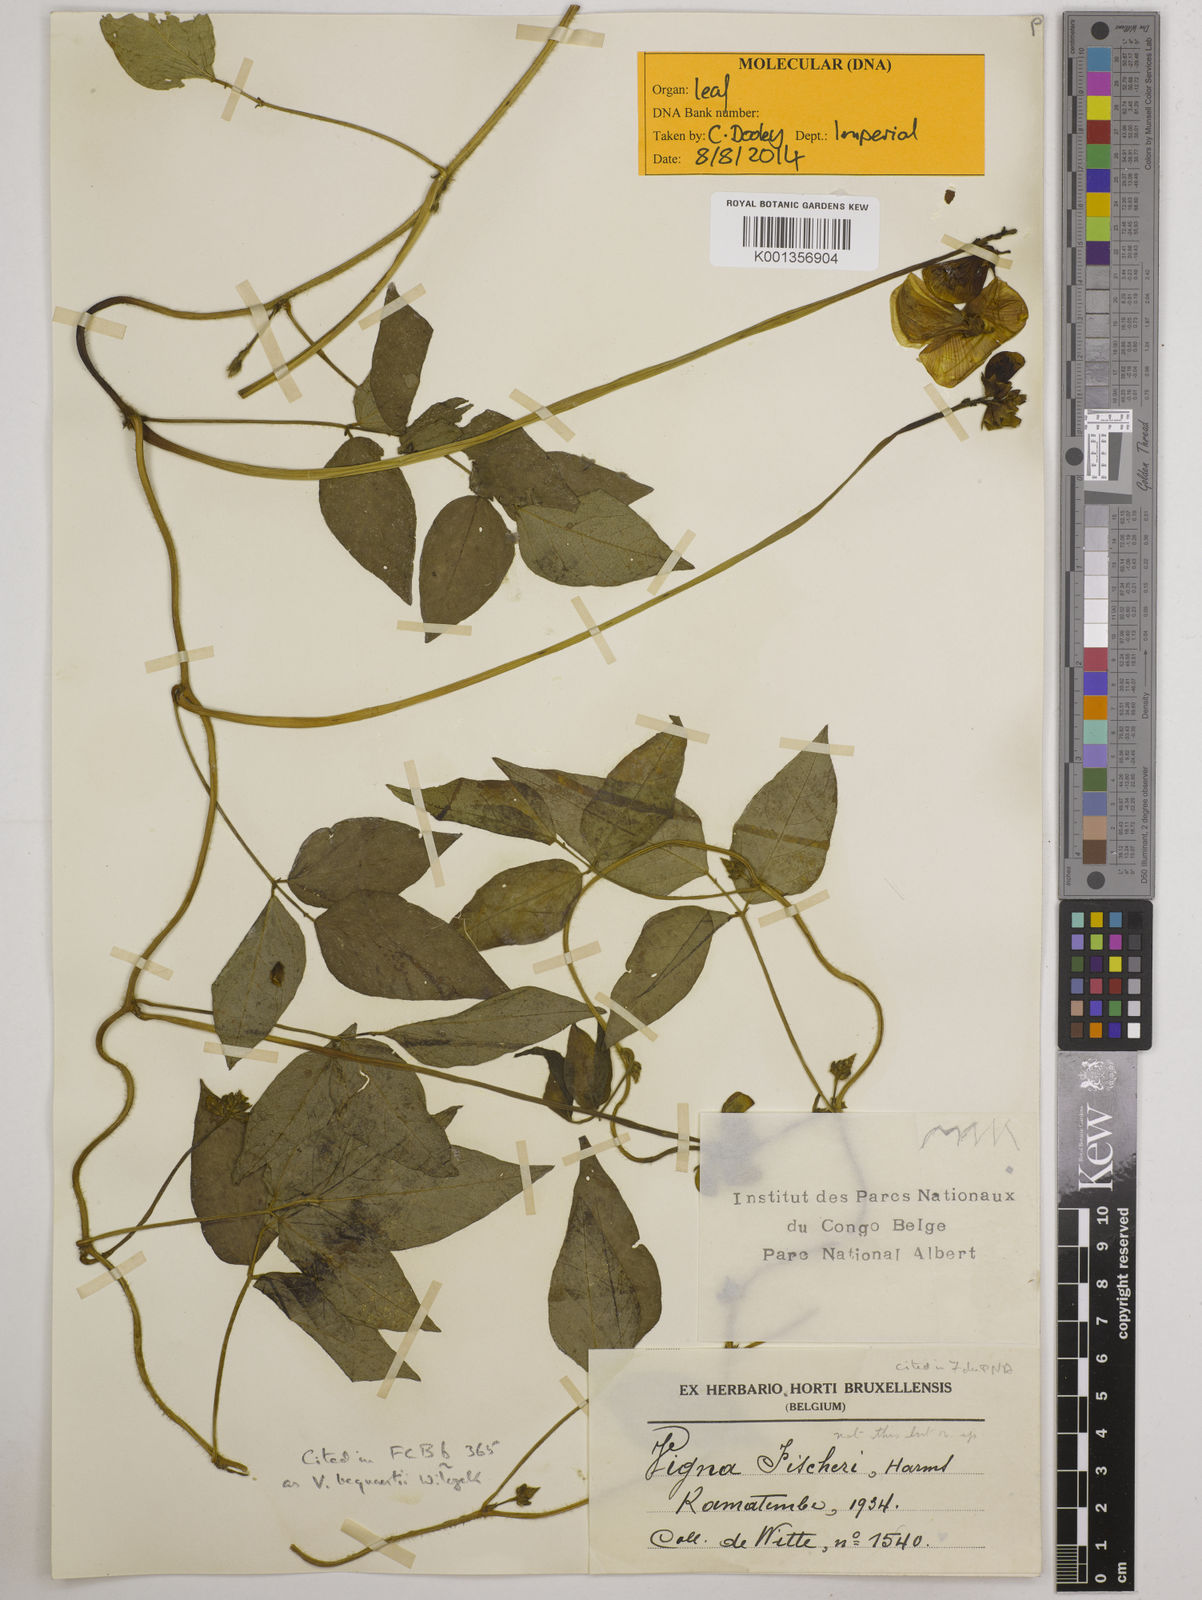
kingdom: Plantae
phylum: Tracheophyta
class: Magnoliopsida
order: Fabales
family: Fabaceae
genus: Vigna
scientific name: Vigna bequaertii
